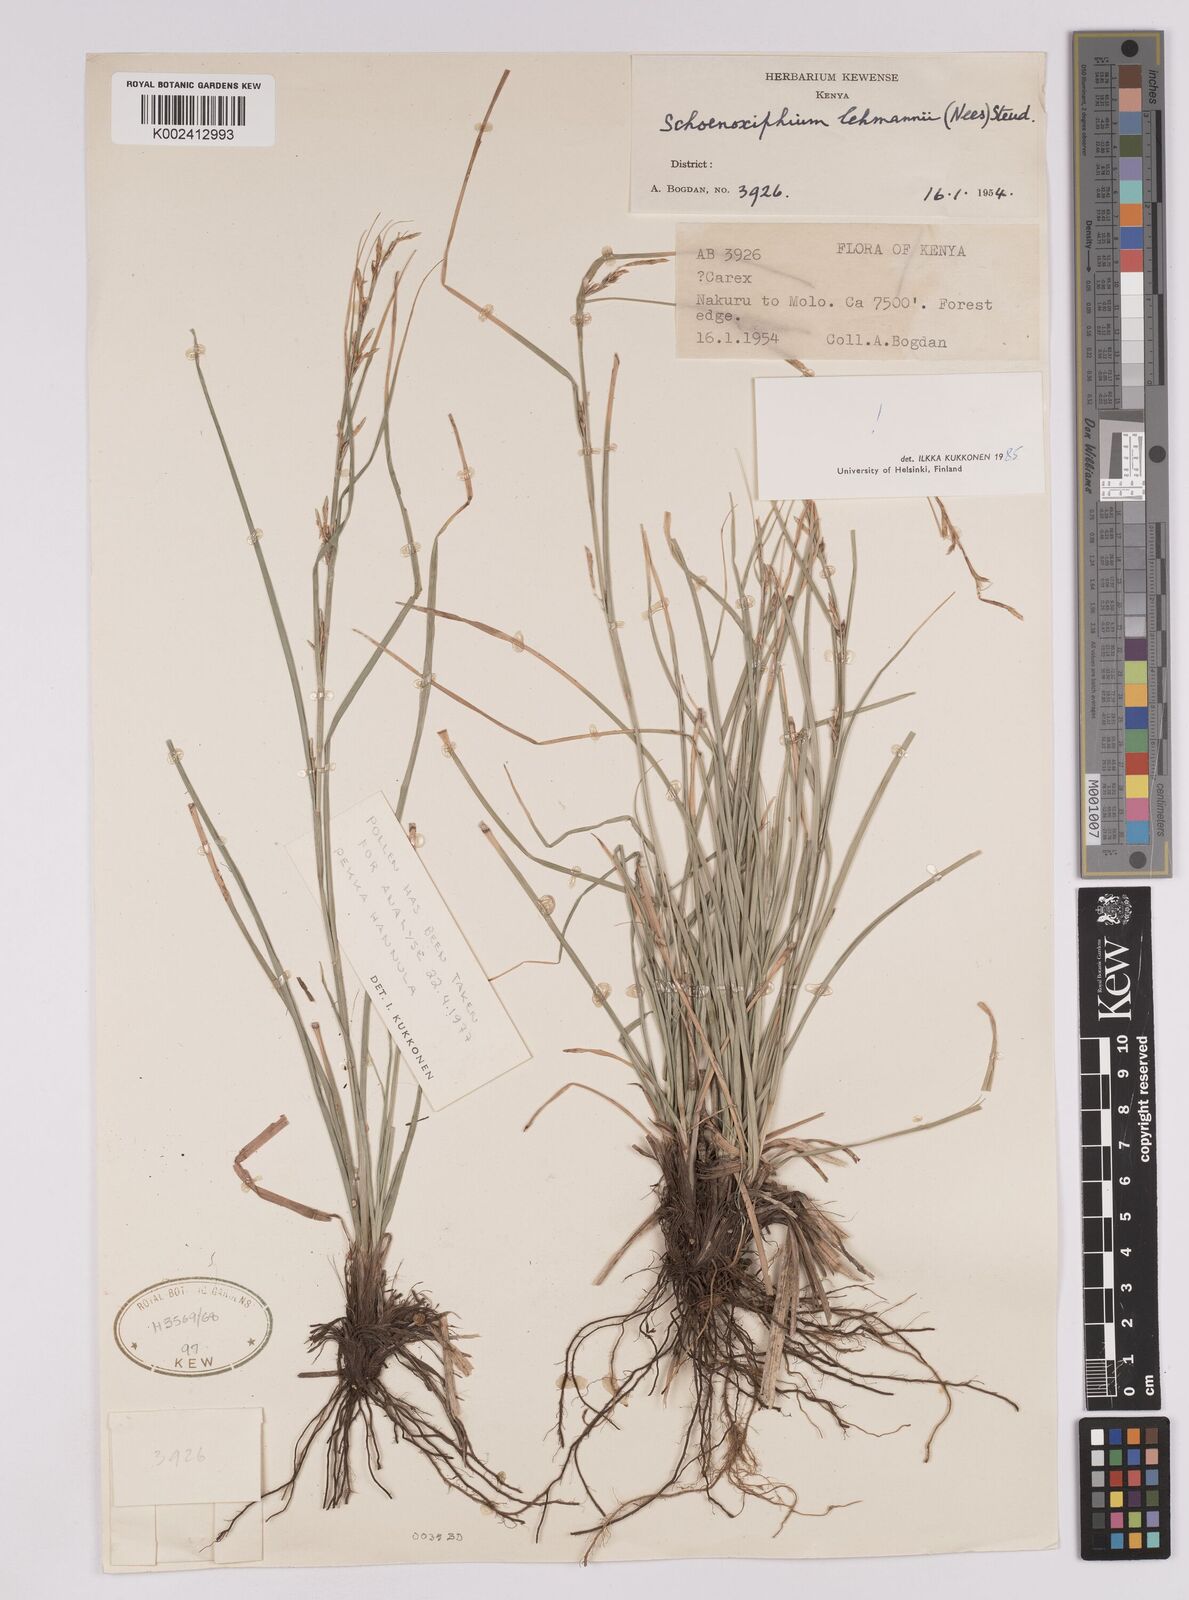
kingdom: Plantae
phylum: Tracheophyta
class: Liliopsida
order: Poales
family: Cyperaceae
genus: Carex
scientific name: Carex uhligii
